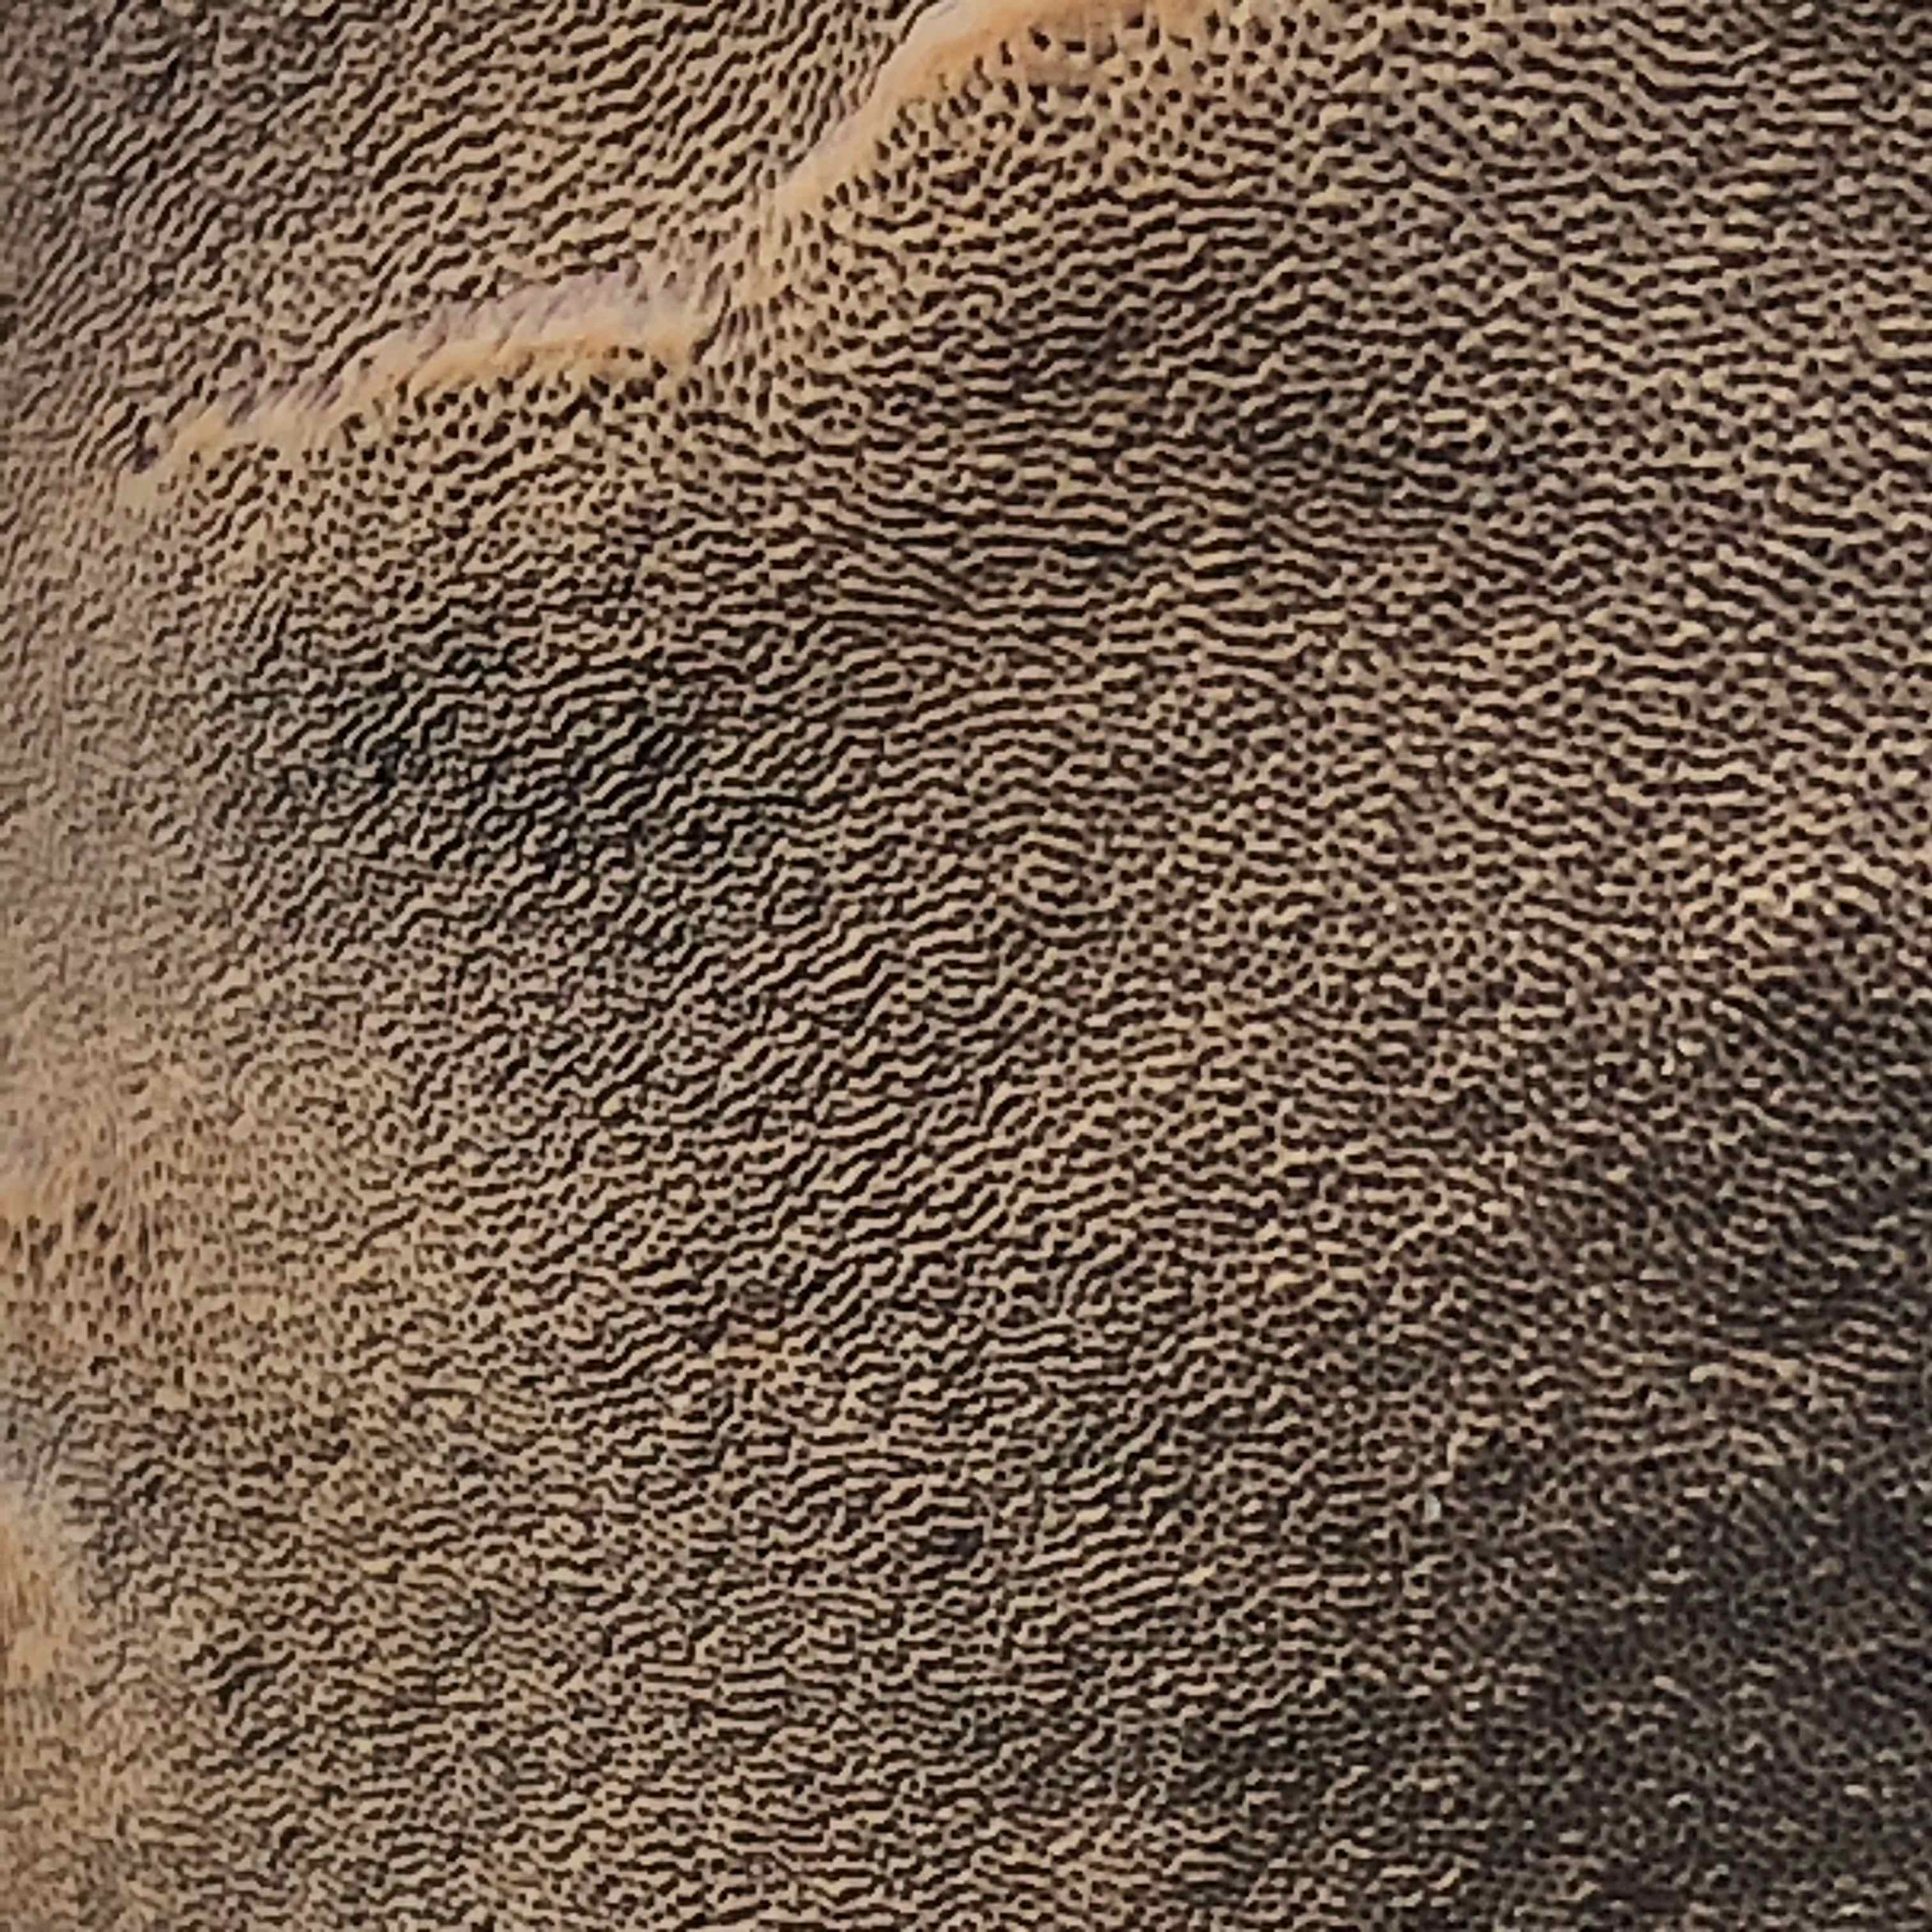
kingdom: Fungi
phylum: Basidiomycota
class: Agaricomycetes
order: Hymenochaetales
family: Hymenochaetaceae
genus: Phellinus
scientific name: Phellinus pomaceus
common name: blomme-ildporesvamp
